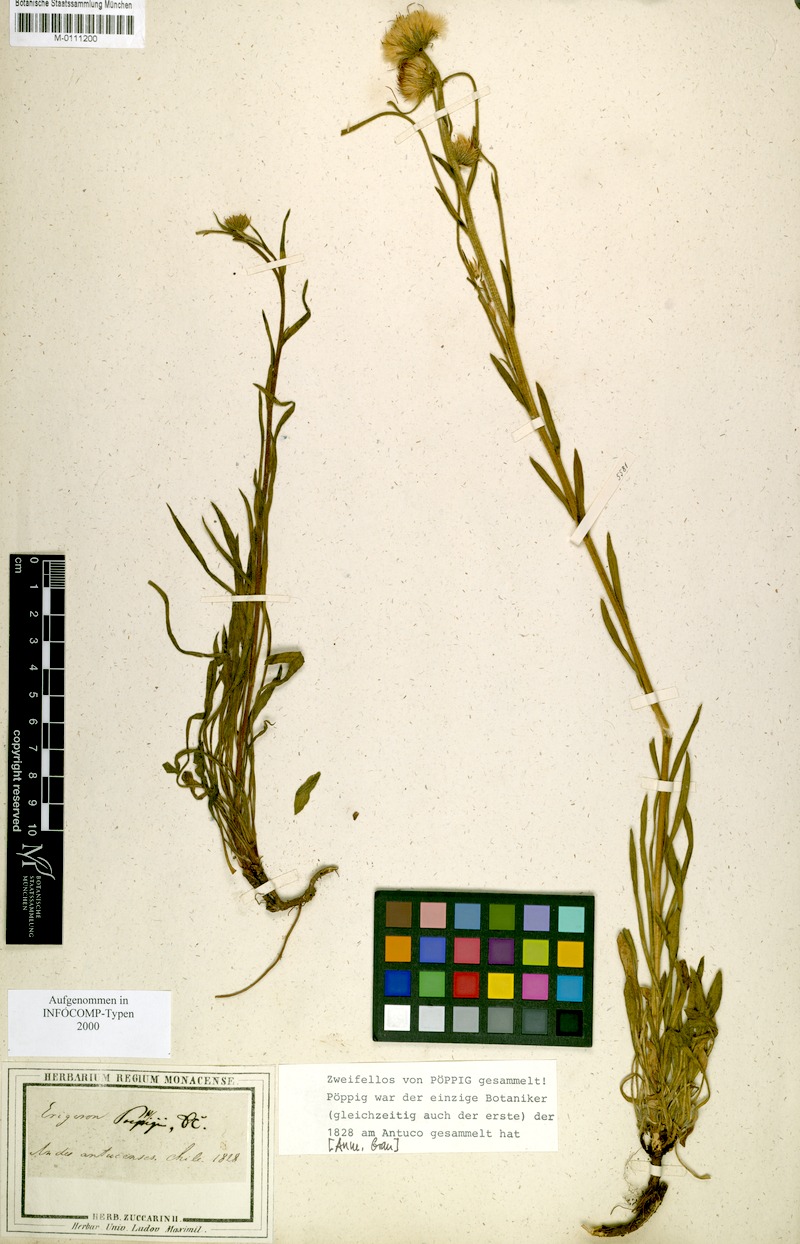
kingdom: Plantae
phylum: Tracheophyta
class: Magnoliopsida
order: Asterales
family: Asteraceae
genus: Erigeron
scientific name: Erigeron cinereus
